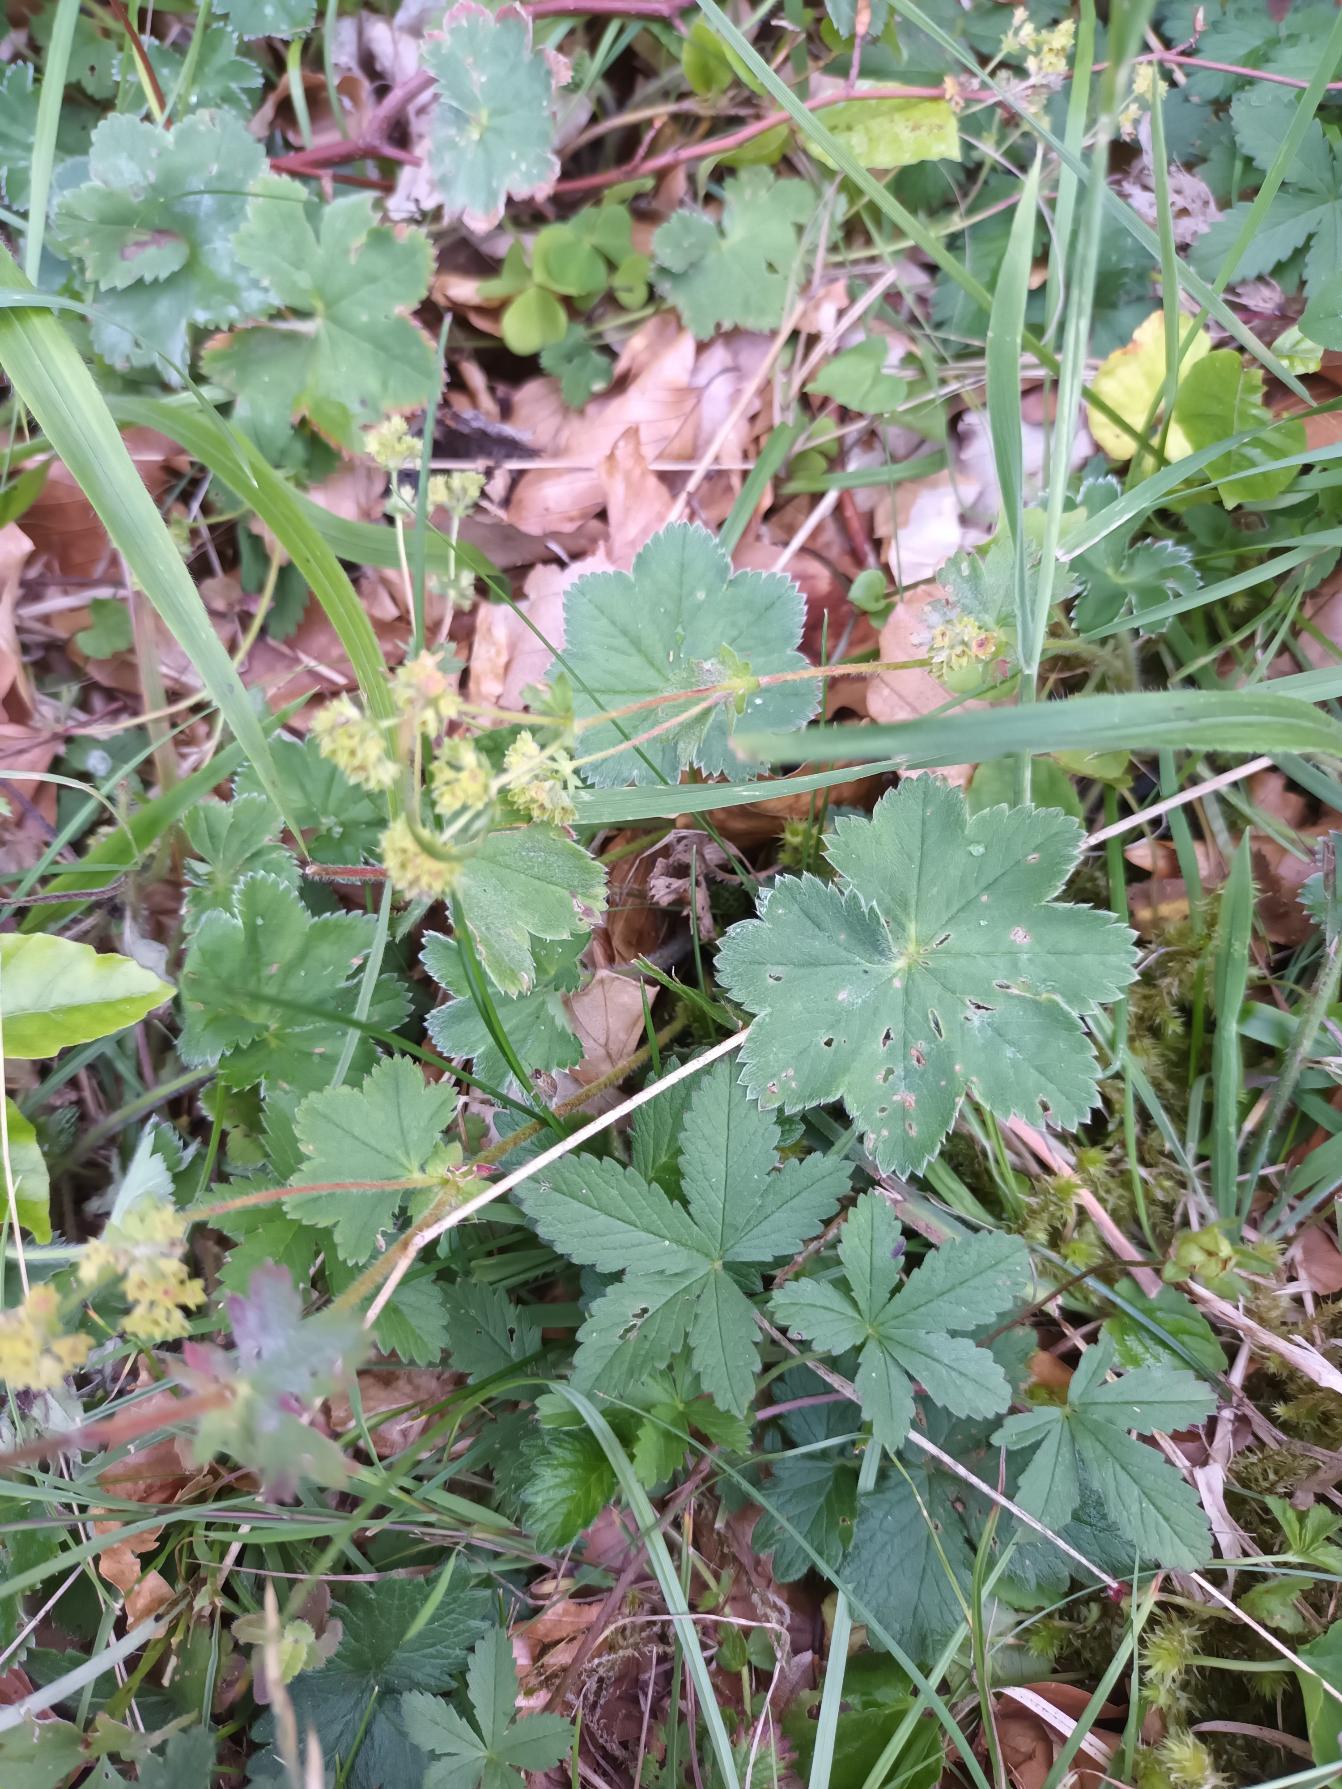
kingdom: Plantae
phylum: Tracheophyta
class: Magnoliopsida
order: Rosales
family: Rosaceae
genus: Alchemilla
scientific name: Alchemilla glaucescens
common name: Blågrøn løvefod
